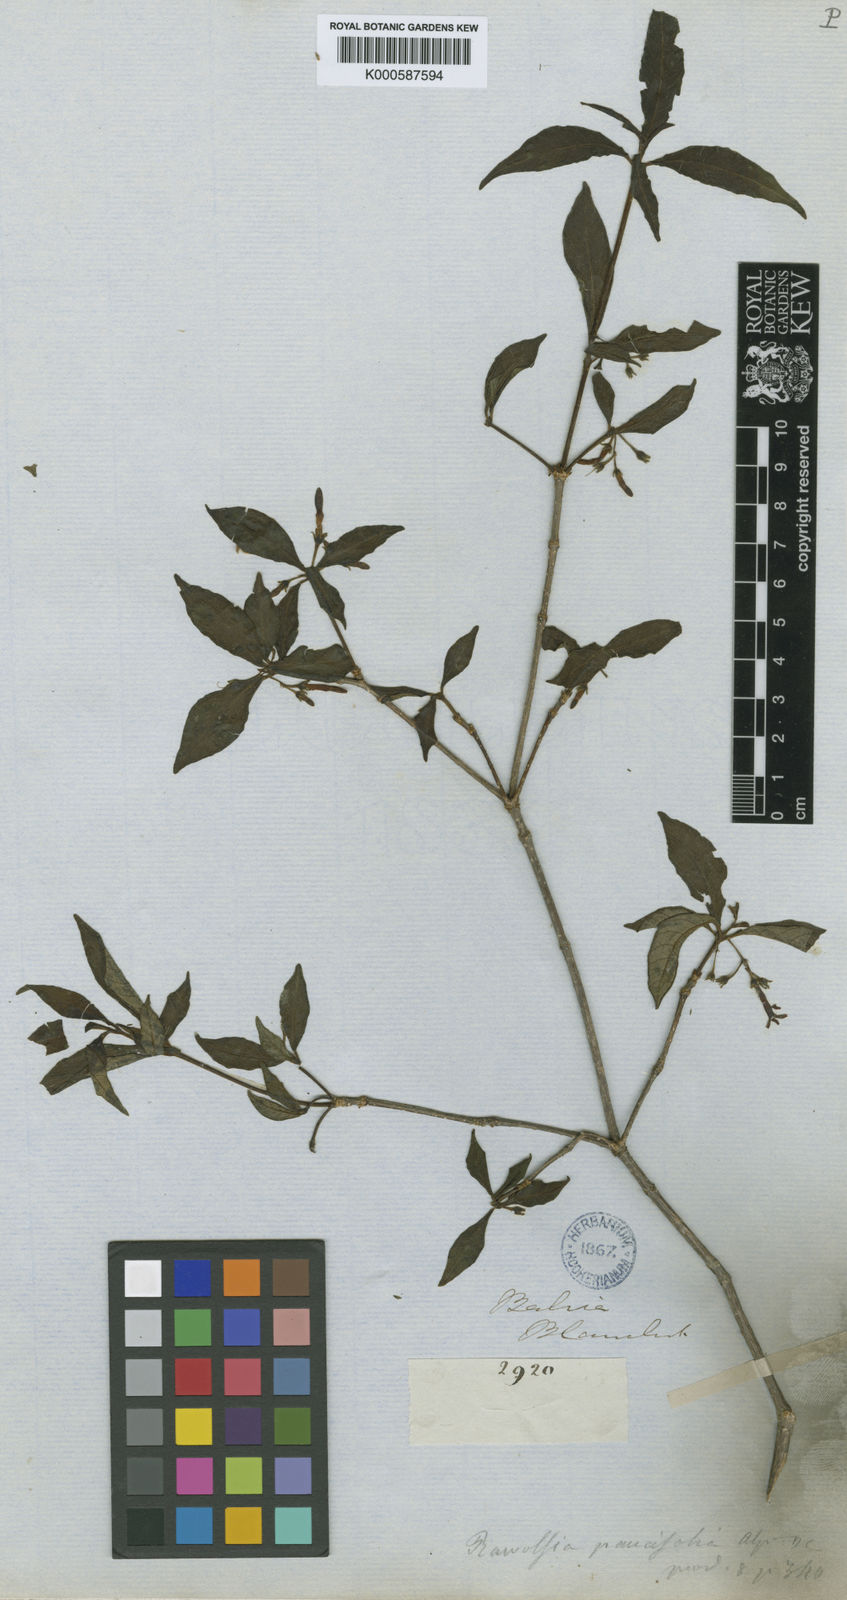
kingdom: Plantae
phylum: Tracheophyta
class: Magnoliopsida
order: Gentianales
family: Apocynaceae
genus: Rauvolfia
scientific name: Rauvolfia paucifolia
